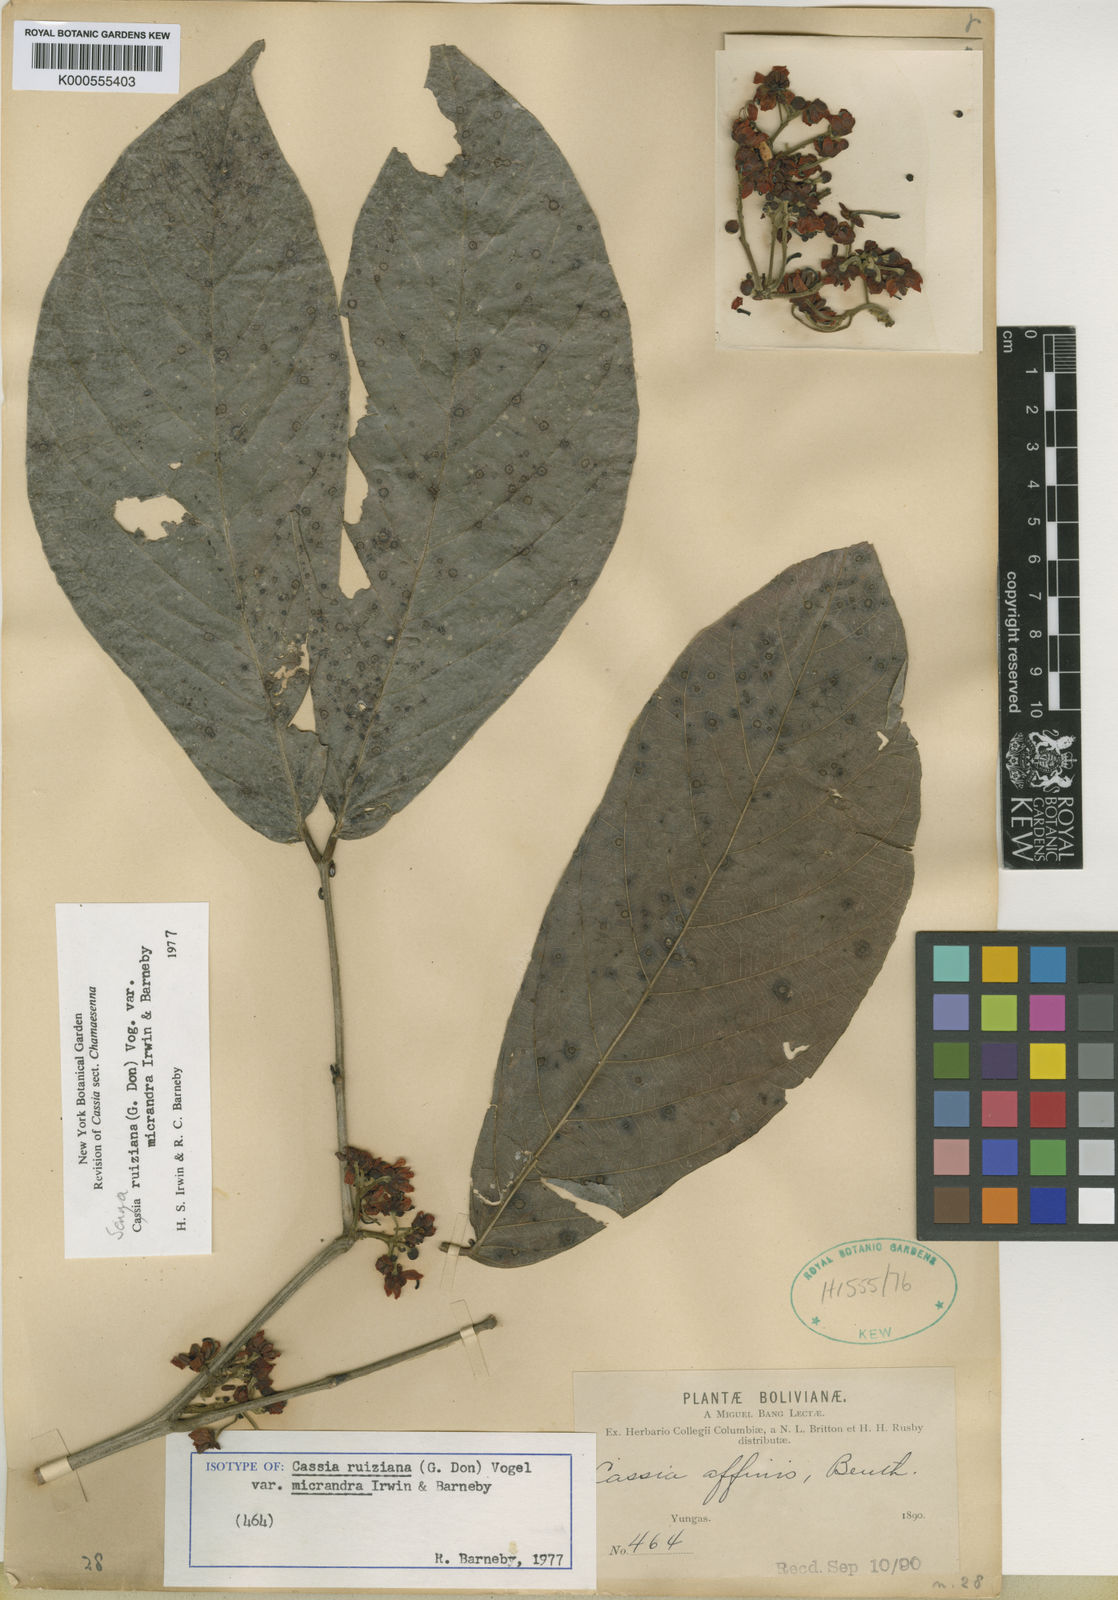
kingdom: Plantae
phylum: Tracheophyta
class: Magnoliopsida
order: Fabales
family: Fabaceae
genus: Senna
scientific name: Senna ruiziana
